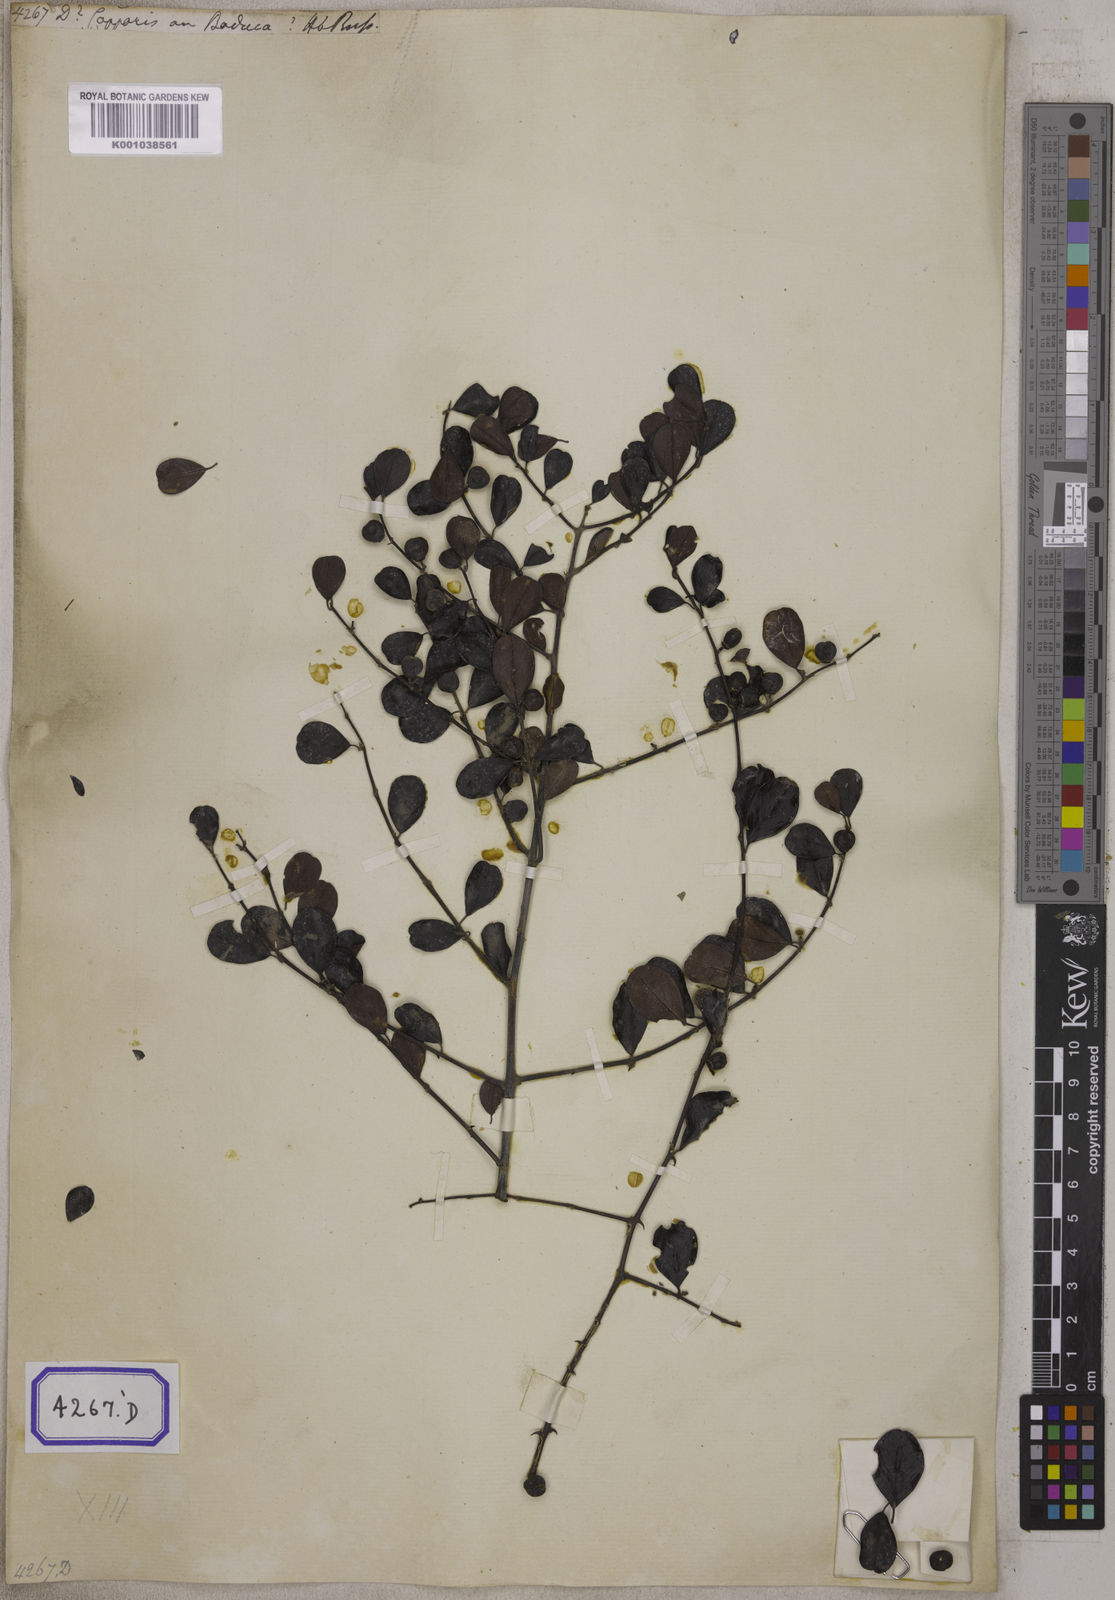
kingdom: Plantae
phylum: Tracheophyta
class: Magnoliopsida
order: Rosales
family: Rhamnaceae
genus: Ceanothus
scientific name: Ceanothus
